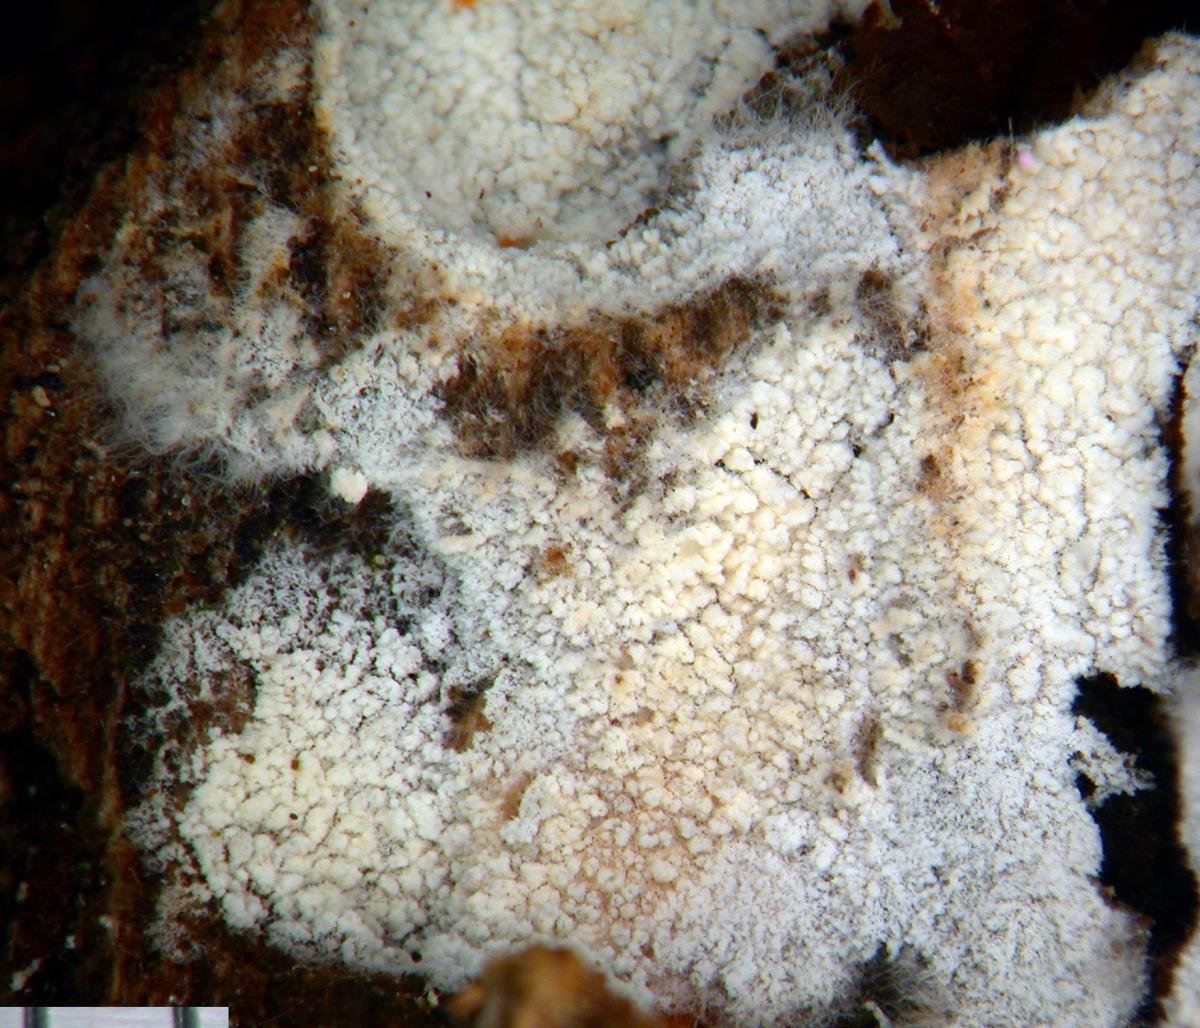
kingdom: Fungi
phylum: Basidiomycota
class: Agaricomycetes
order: Trechisporales
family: Sistotremataceae
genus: Trechispora
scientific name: Trechispora
